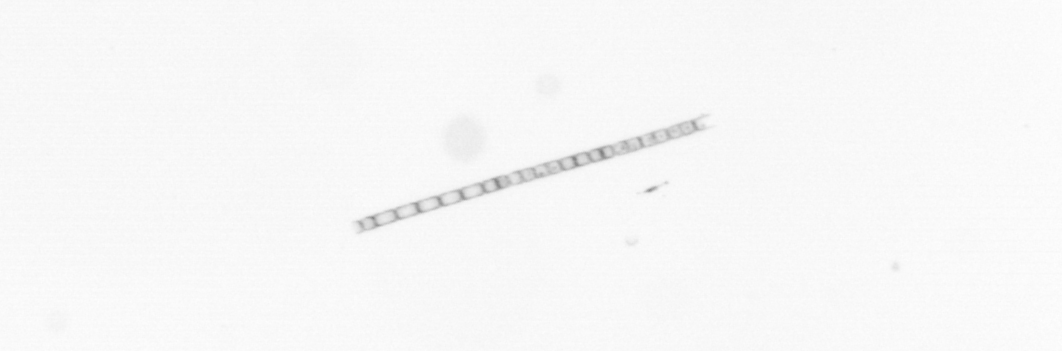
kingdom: Chromista
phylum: Ochrophyta
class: Bacillariophyceae
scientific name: Bacillariophyceae
